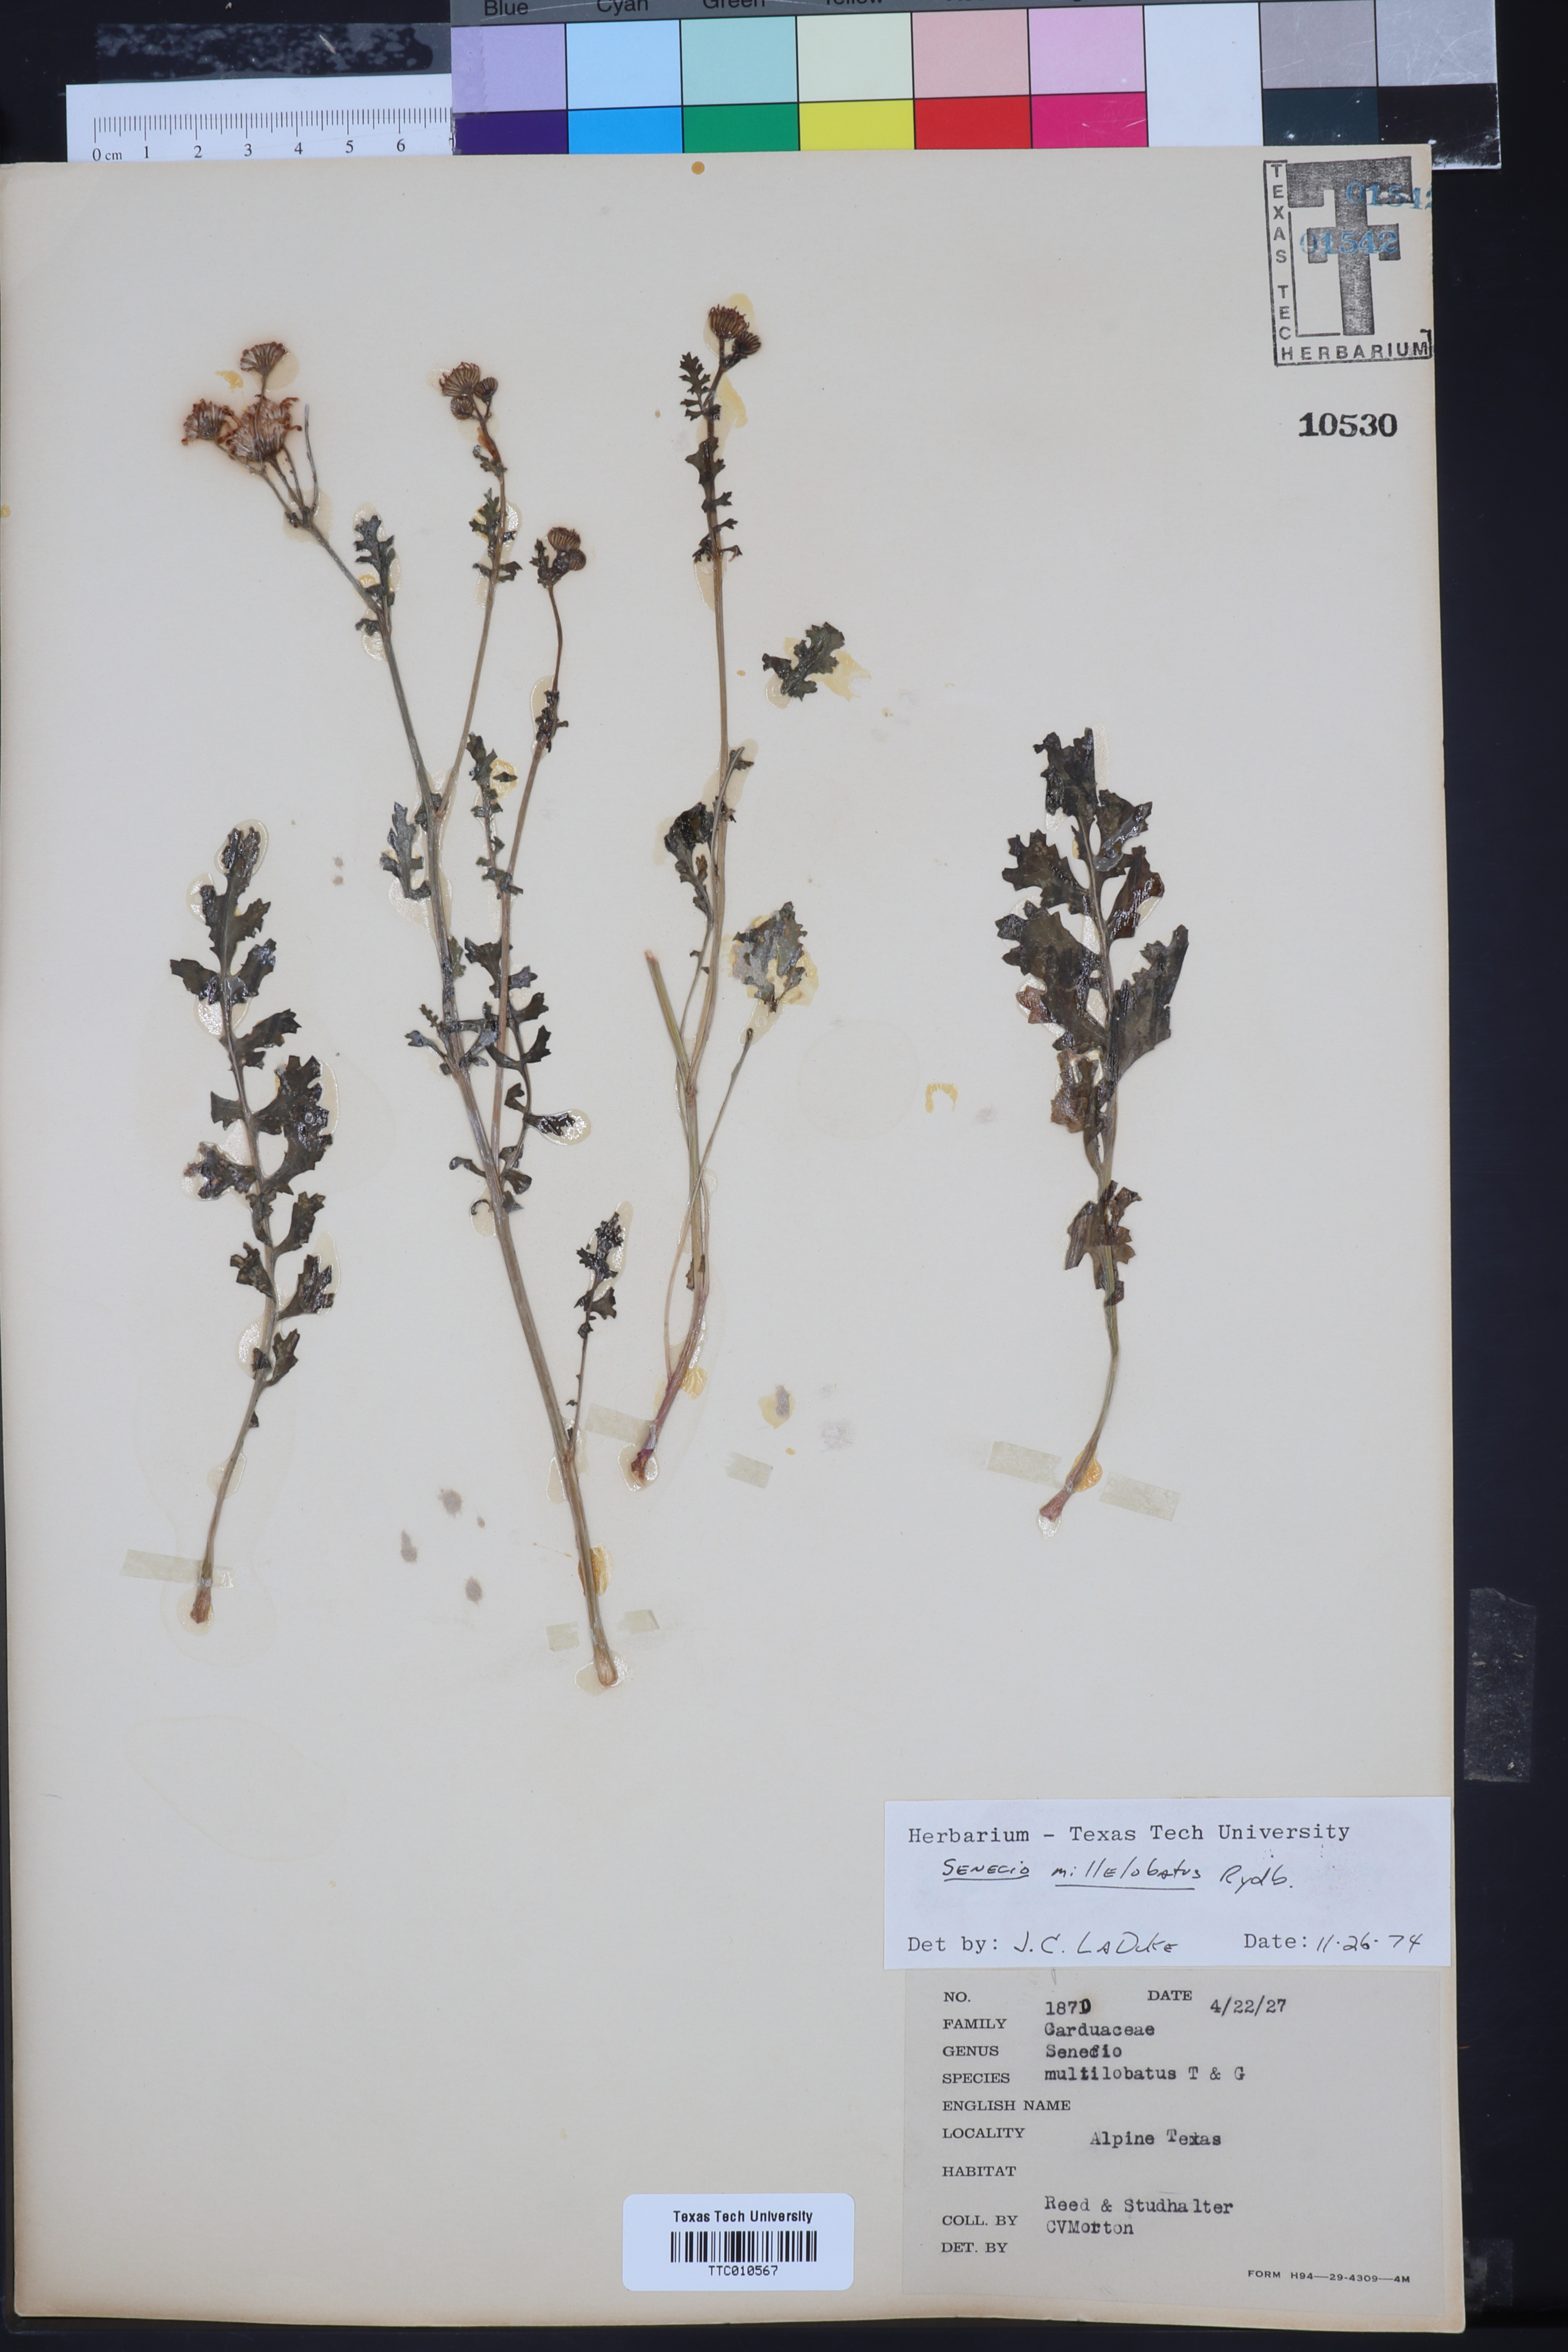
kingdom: Plantae
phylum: Tracheophyta
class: Magnoliopsida
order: Asterales
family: Asteraceae
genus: Packera
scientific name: Packera millelobata
